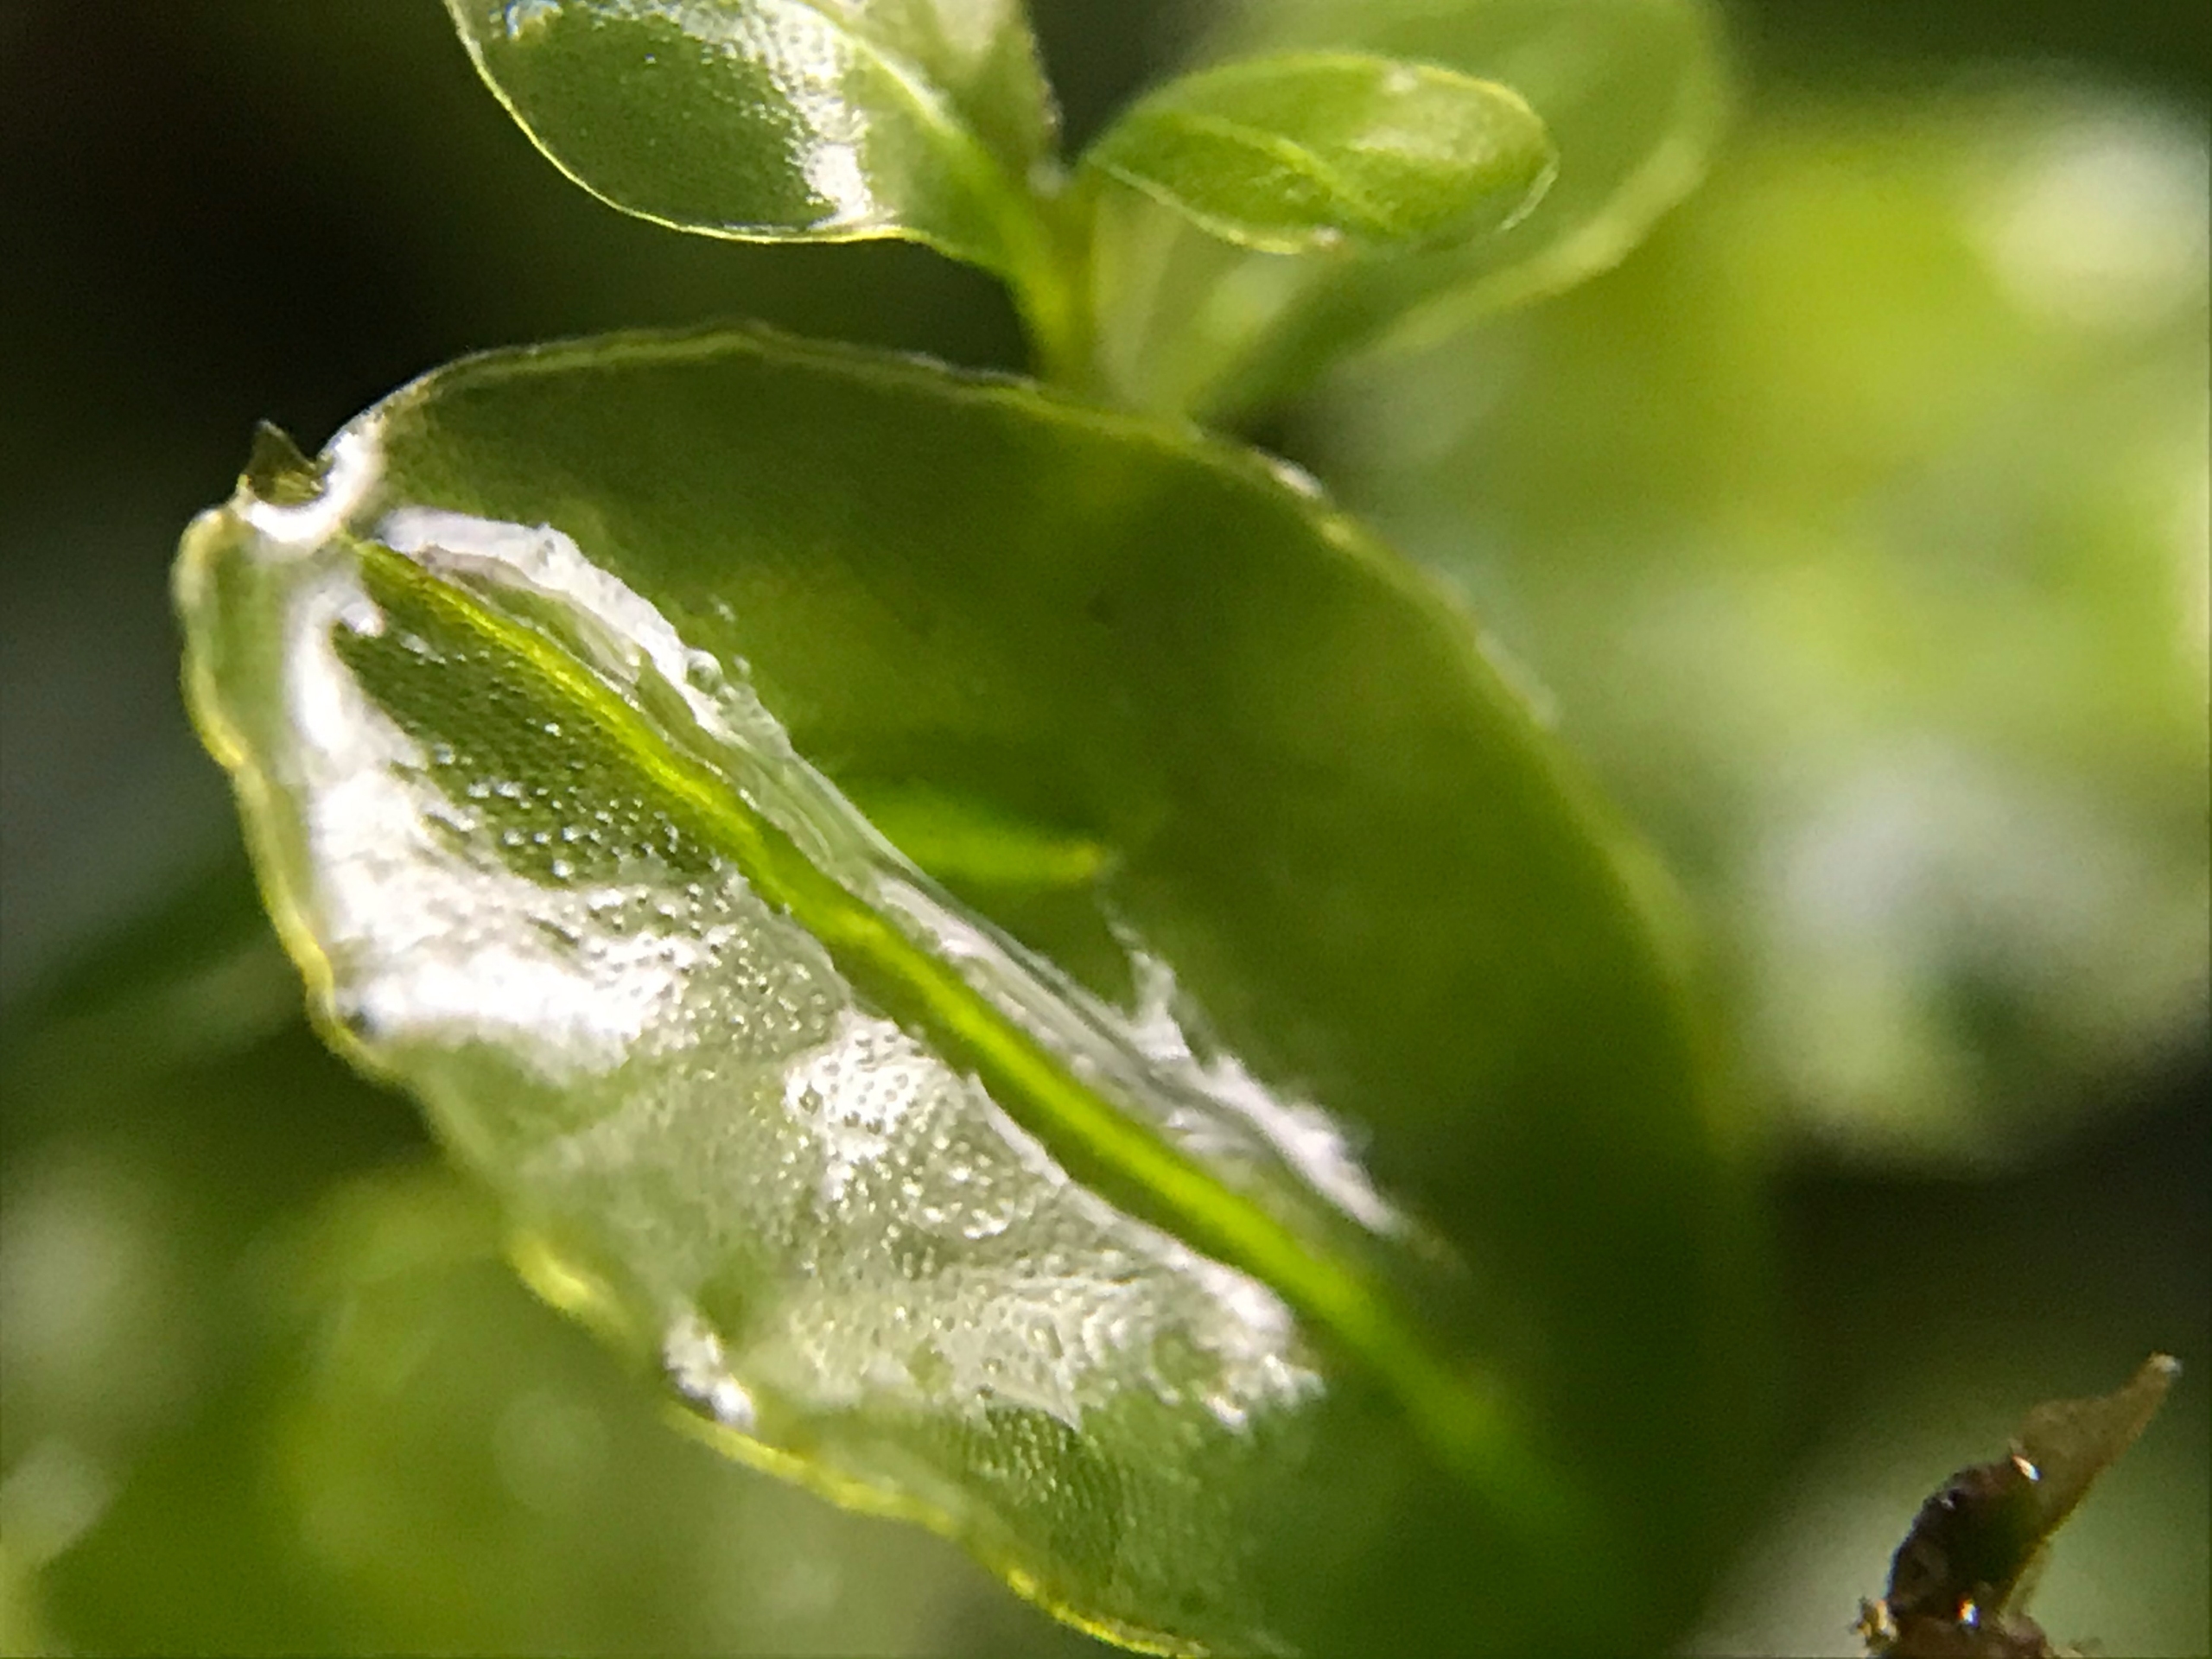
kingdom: Plantae
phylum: Bryophyta
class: Bryopsida
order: Bryales
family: Mniaceae
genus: Rhizomnium
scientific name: Rhizomnium punctatum
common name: Almindelig bredblad
